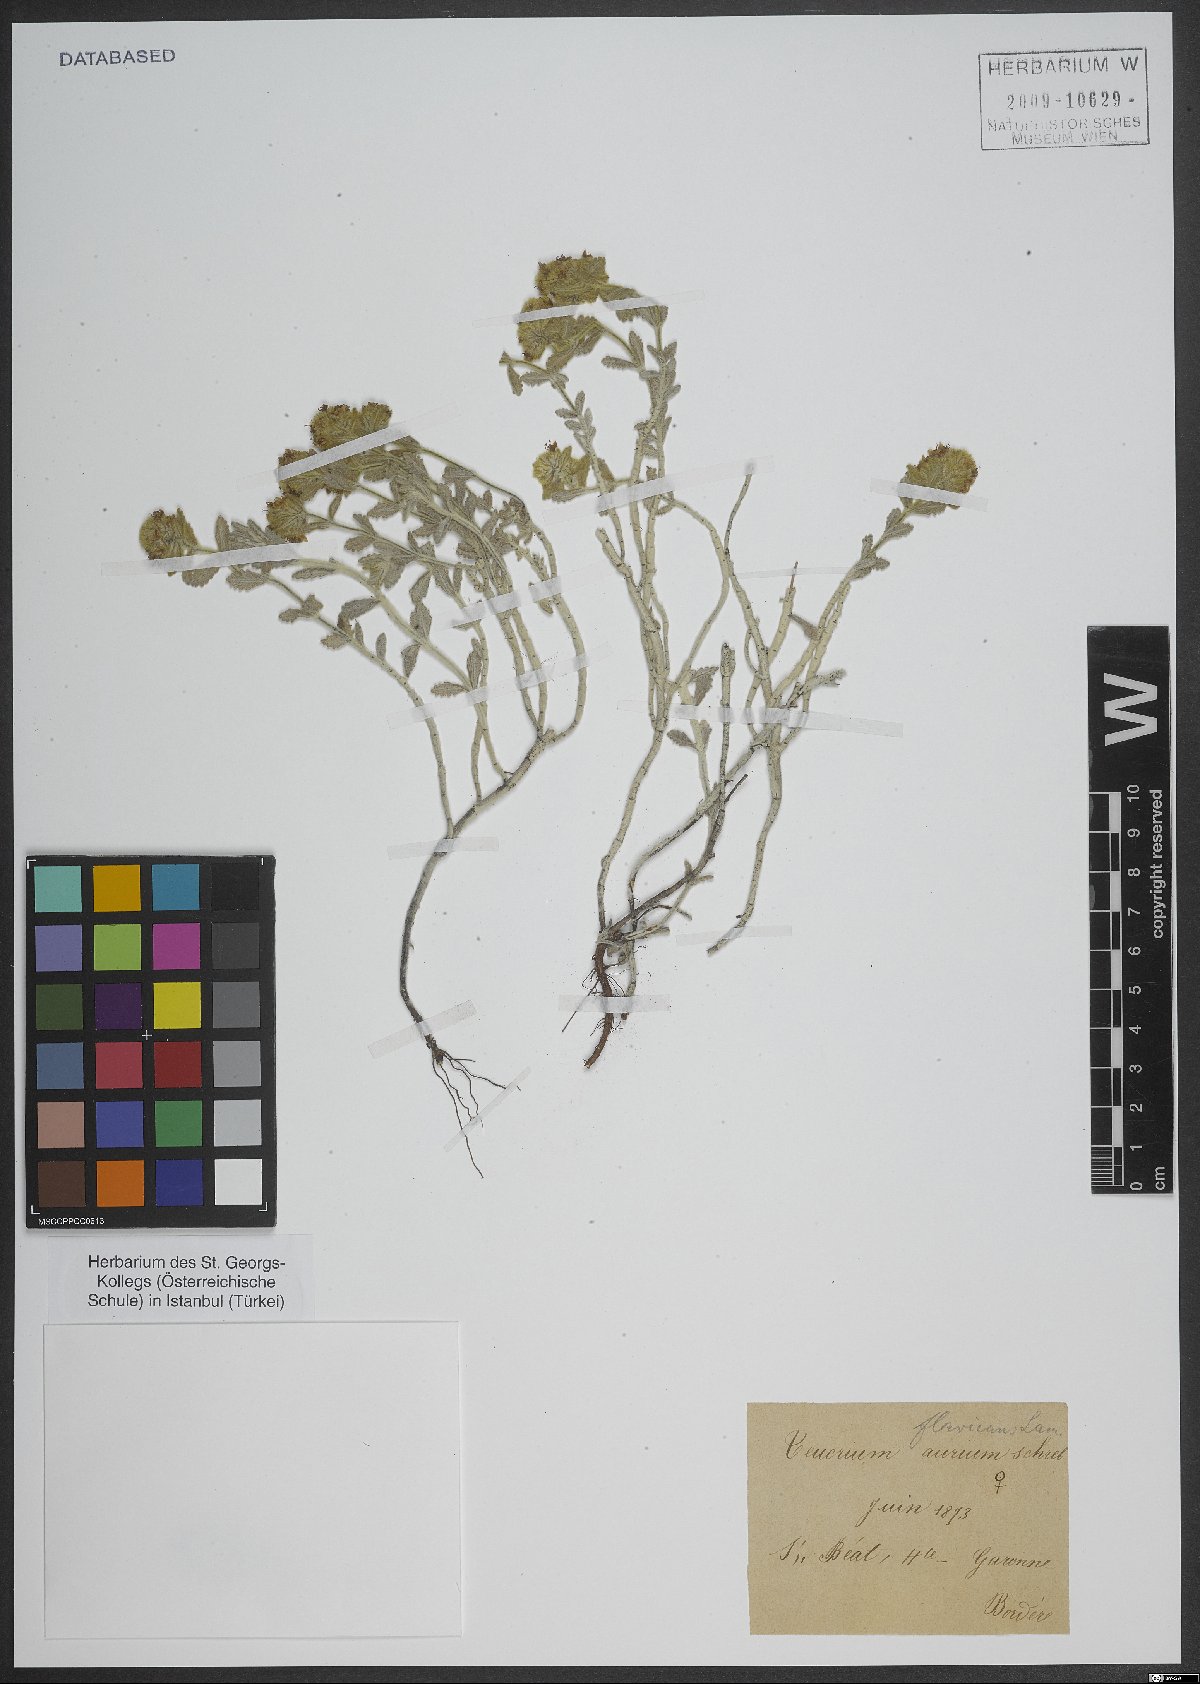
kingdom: Plantae
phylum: Tracheophyta
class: Magnoliopsida
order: Lamiales
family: Lamiaceae
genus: Teucrium
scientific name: Teucrium aureum
